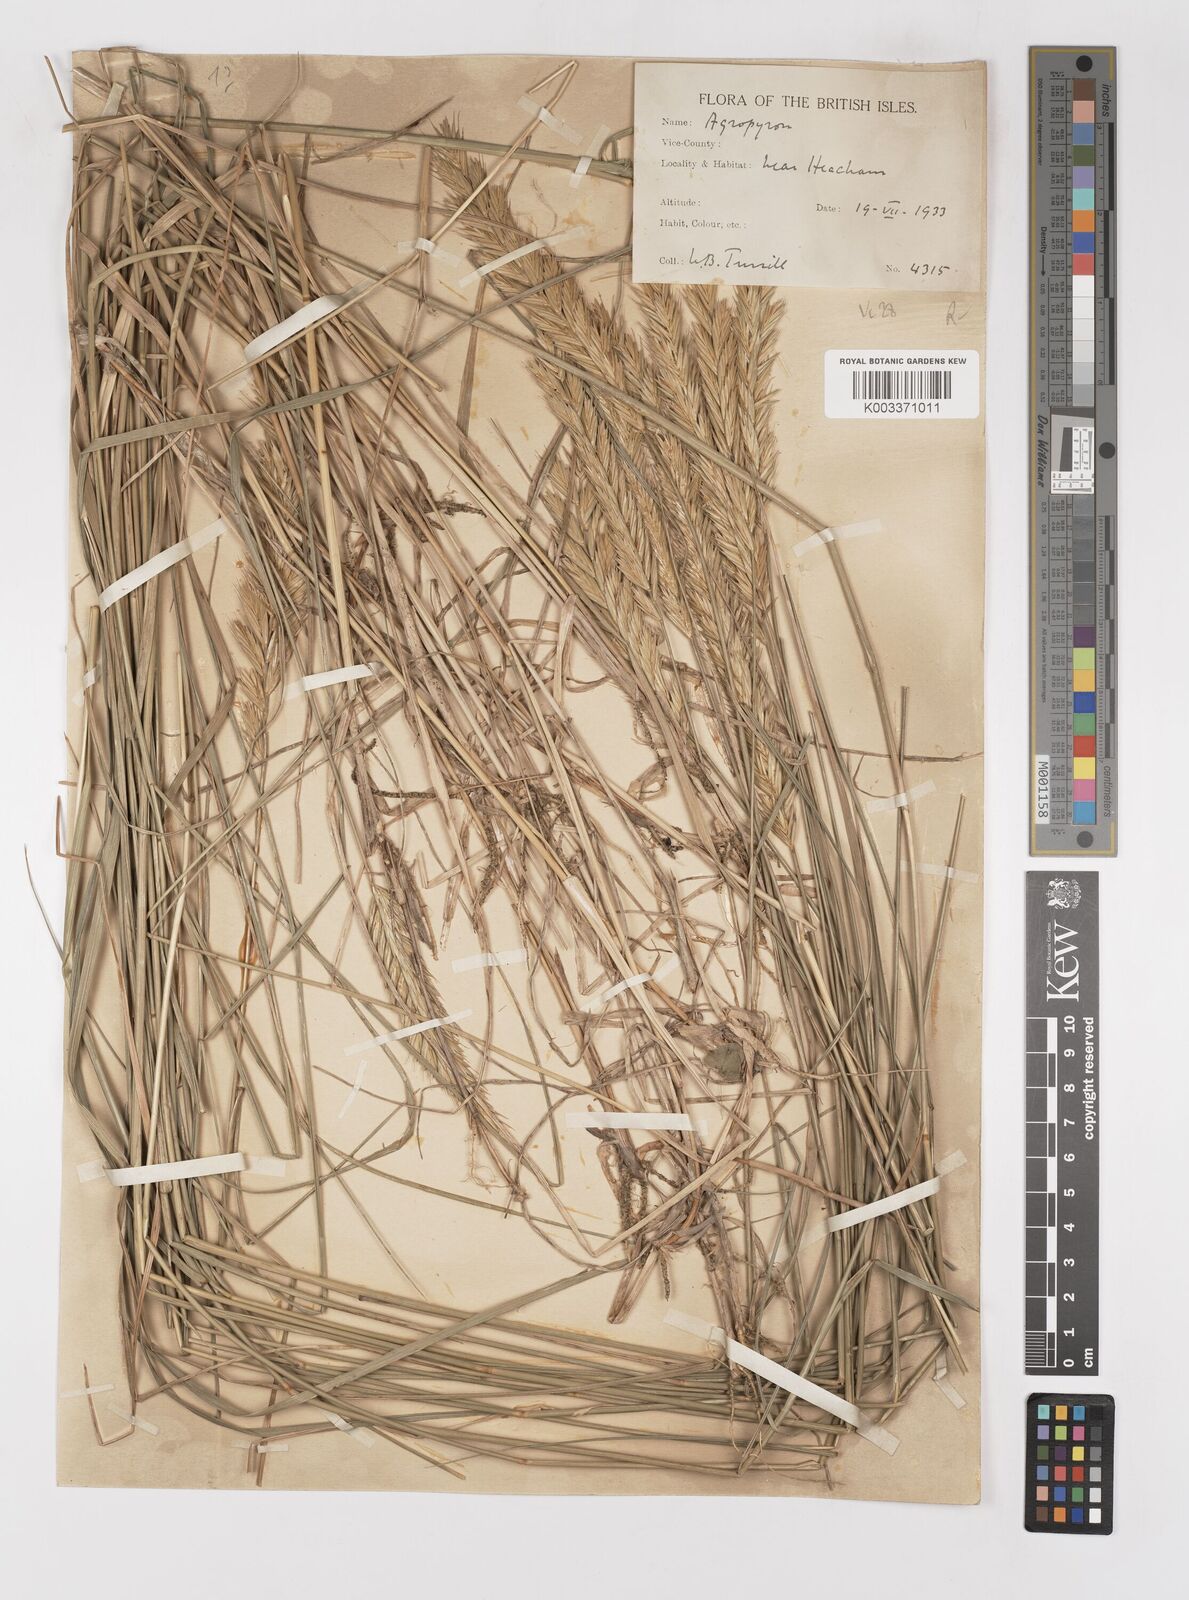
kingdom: Plantae
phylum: Tracheophyta
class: Liliopsida
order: Poales
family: Poaceae
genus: Elymus
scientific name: Elymus repens
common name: Quackgrass
